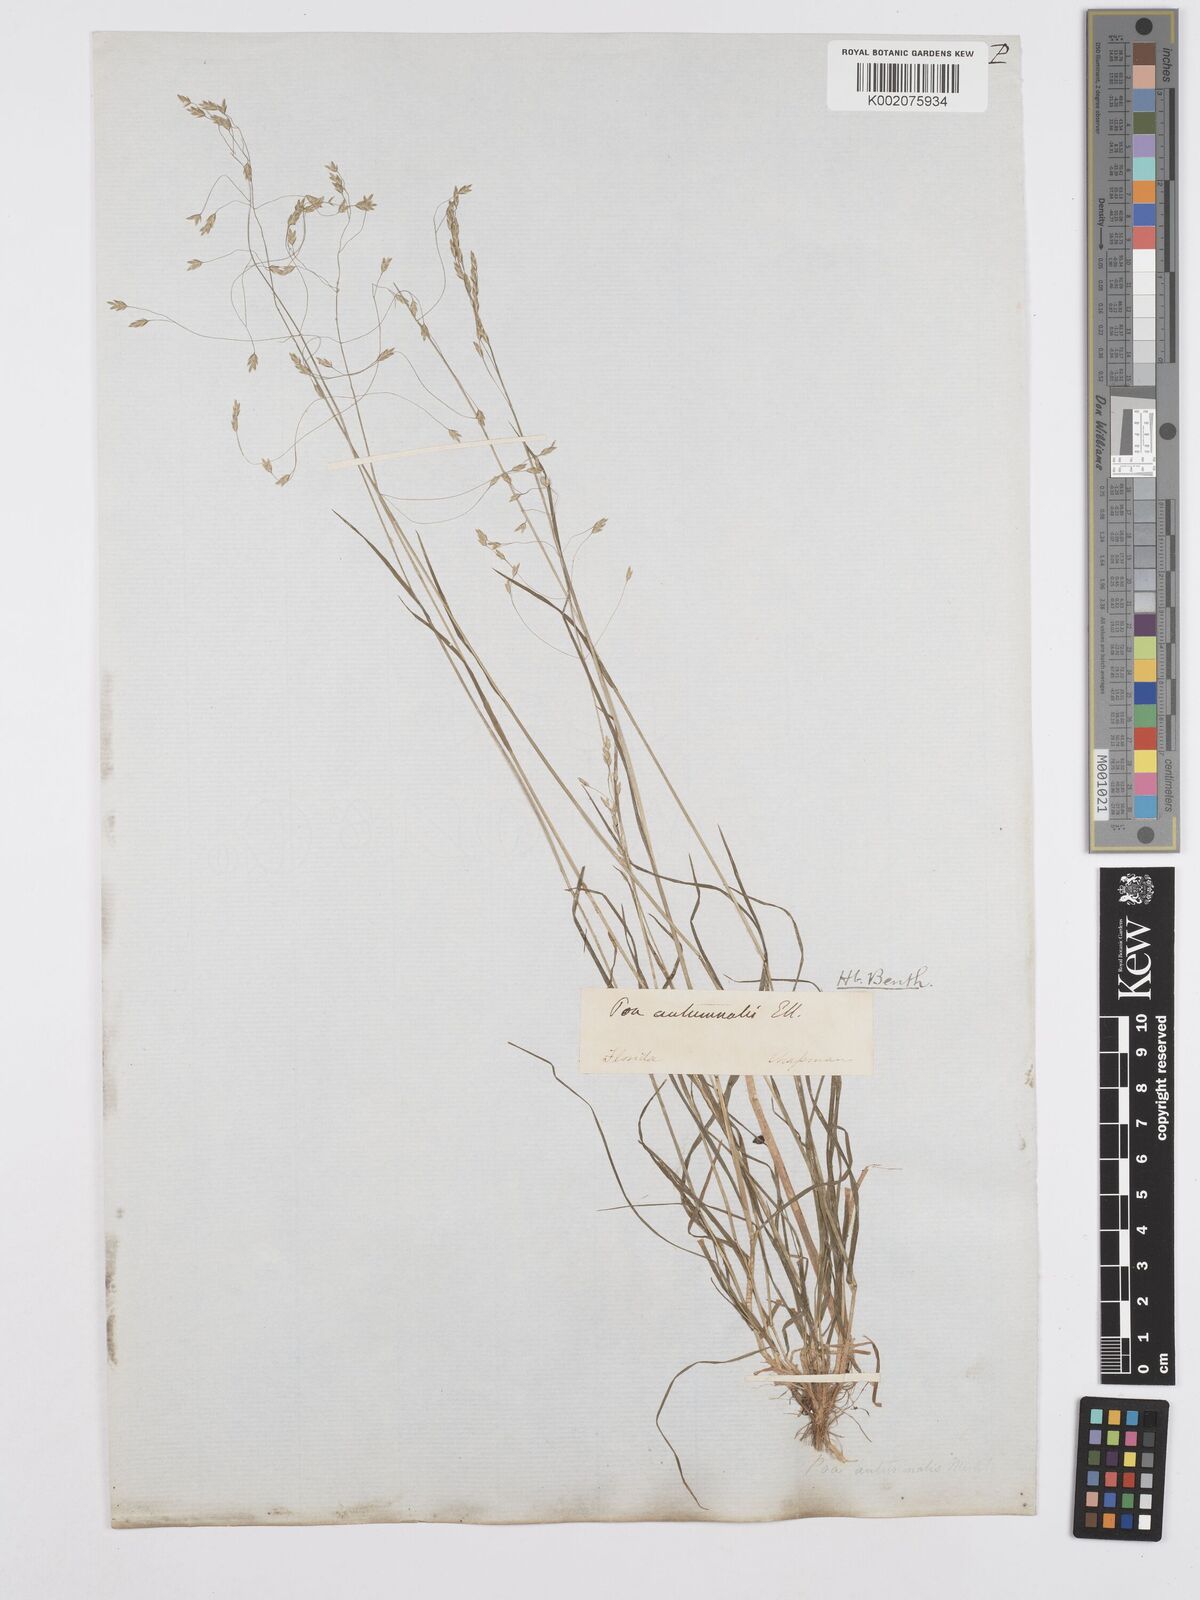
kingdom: Plantae
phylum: Tracheophyta
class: Liliopsida
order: Poales
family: Poaceae
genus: Poa
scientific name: Poa autumnalis
